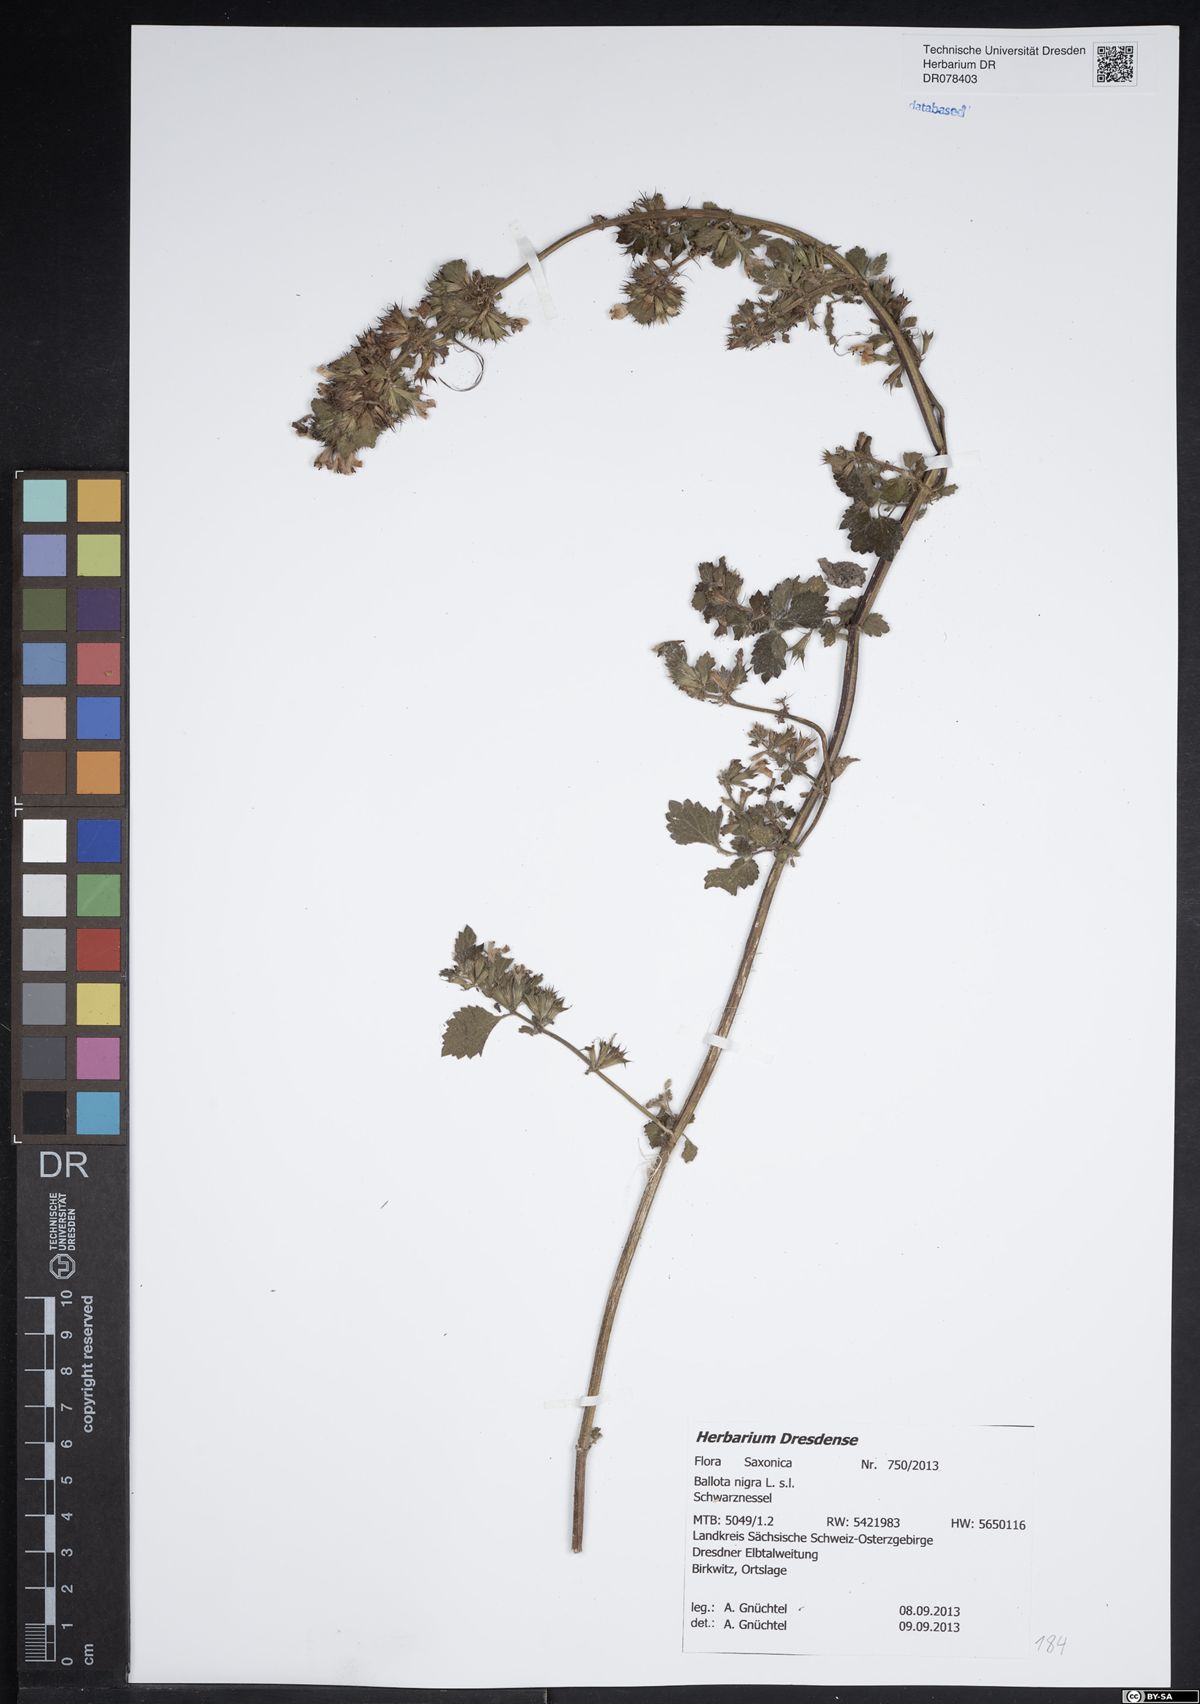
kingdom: Plantae
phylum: Tracheophyta
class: Magnoliopsida
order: Lamiales
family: Lamiaceae
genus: Ballota
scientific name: Ballota nigra
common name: Black horehound
